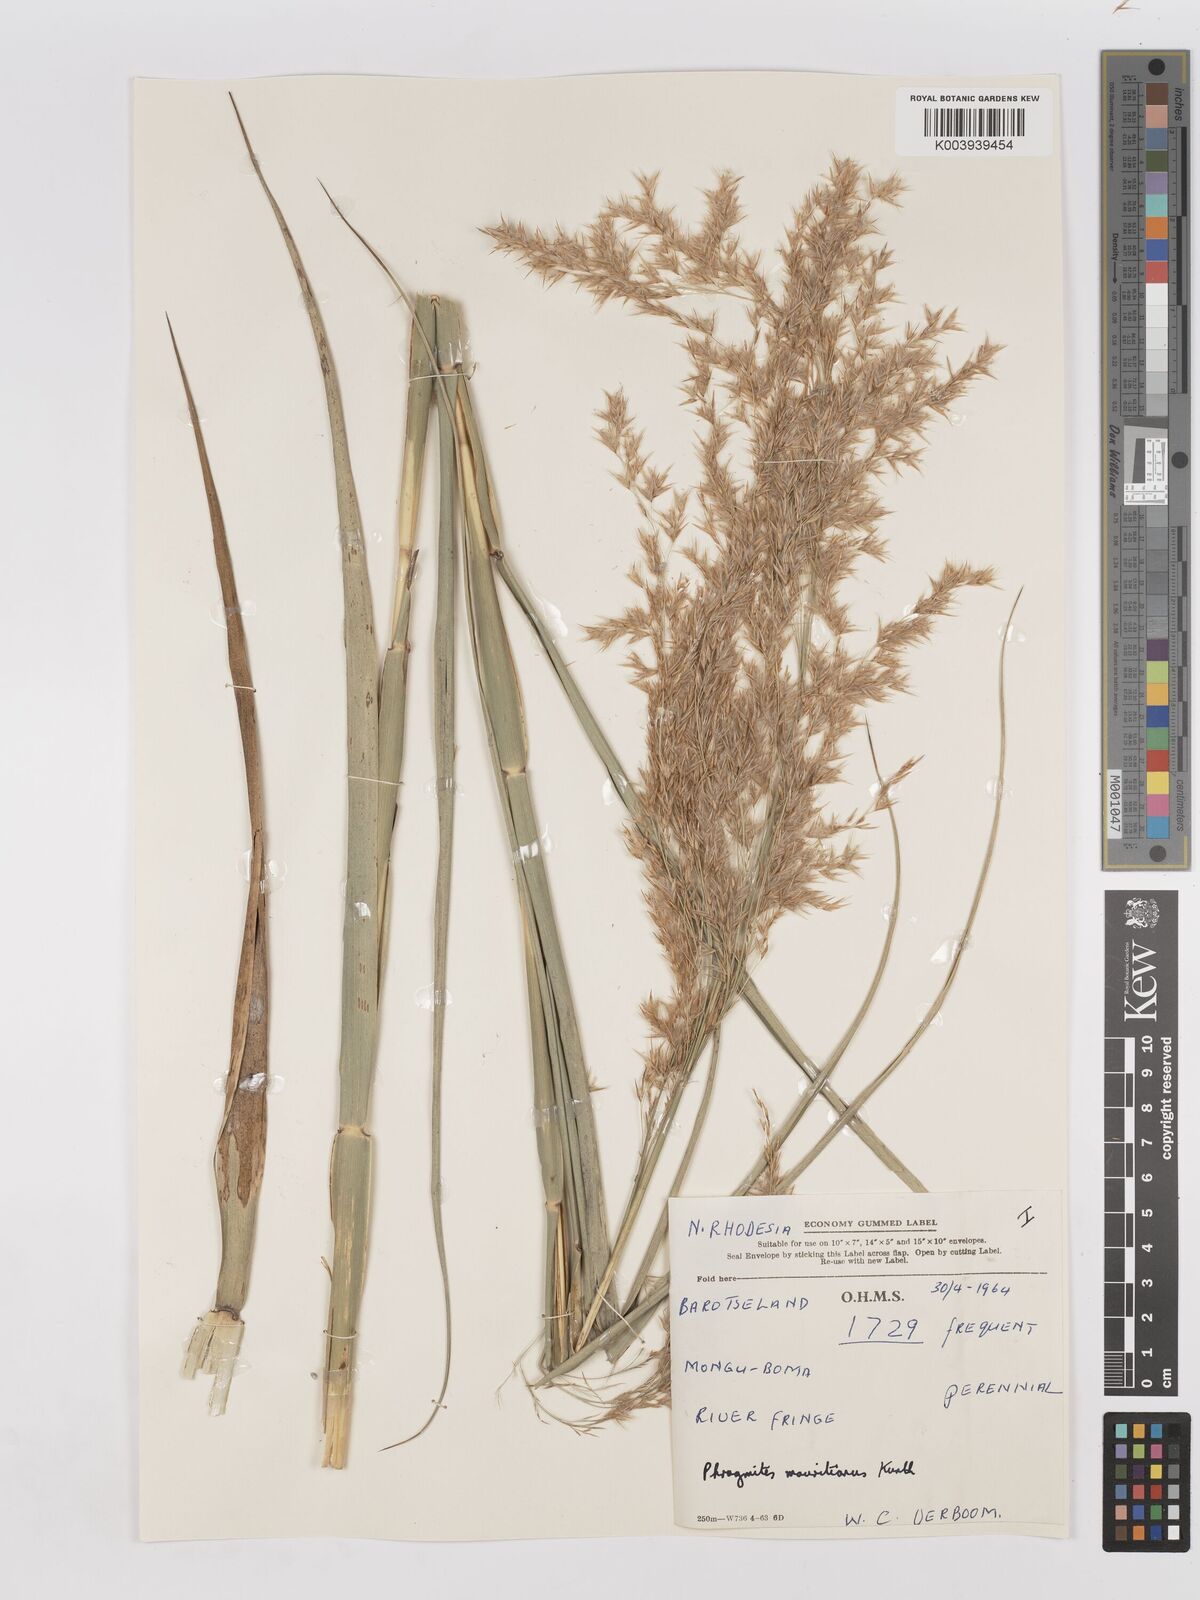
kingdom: Plantae
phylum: Tracheophyta
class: Liliopsida
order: Poales
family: Poaceae
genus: Phragmites
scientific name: Phragmites mauritianus
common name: Reed grass
